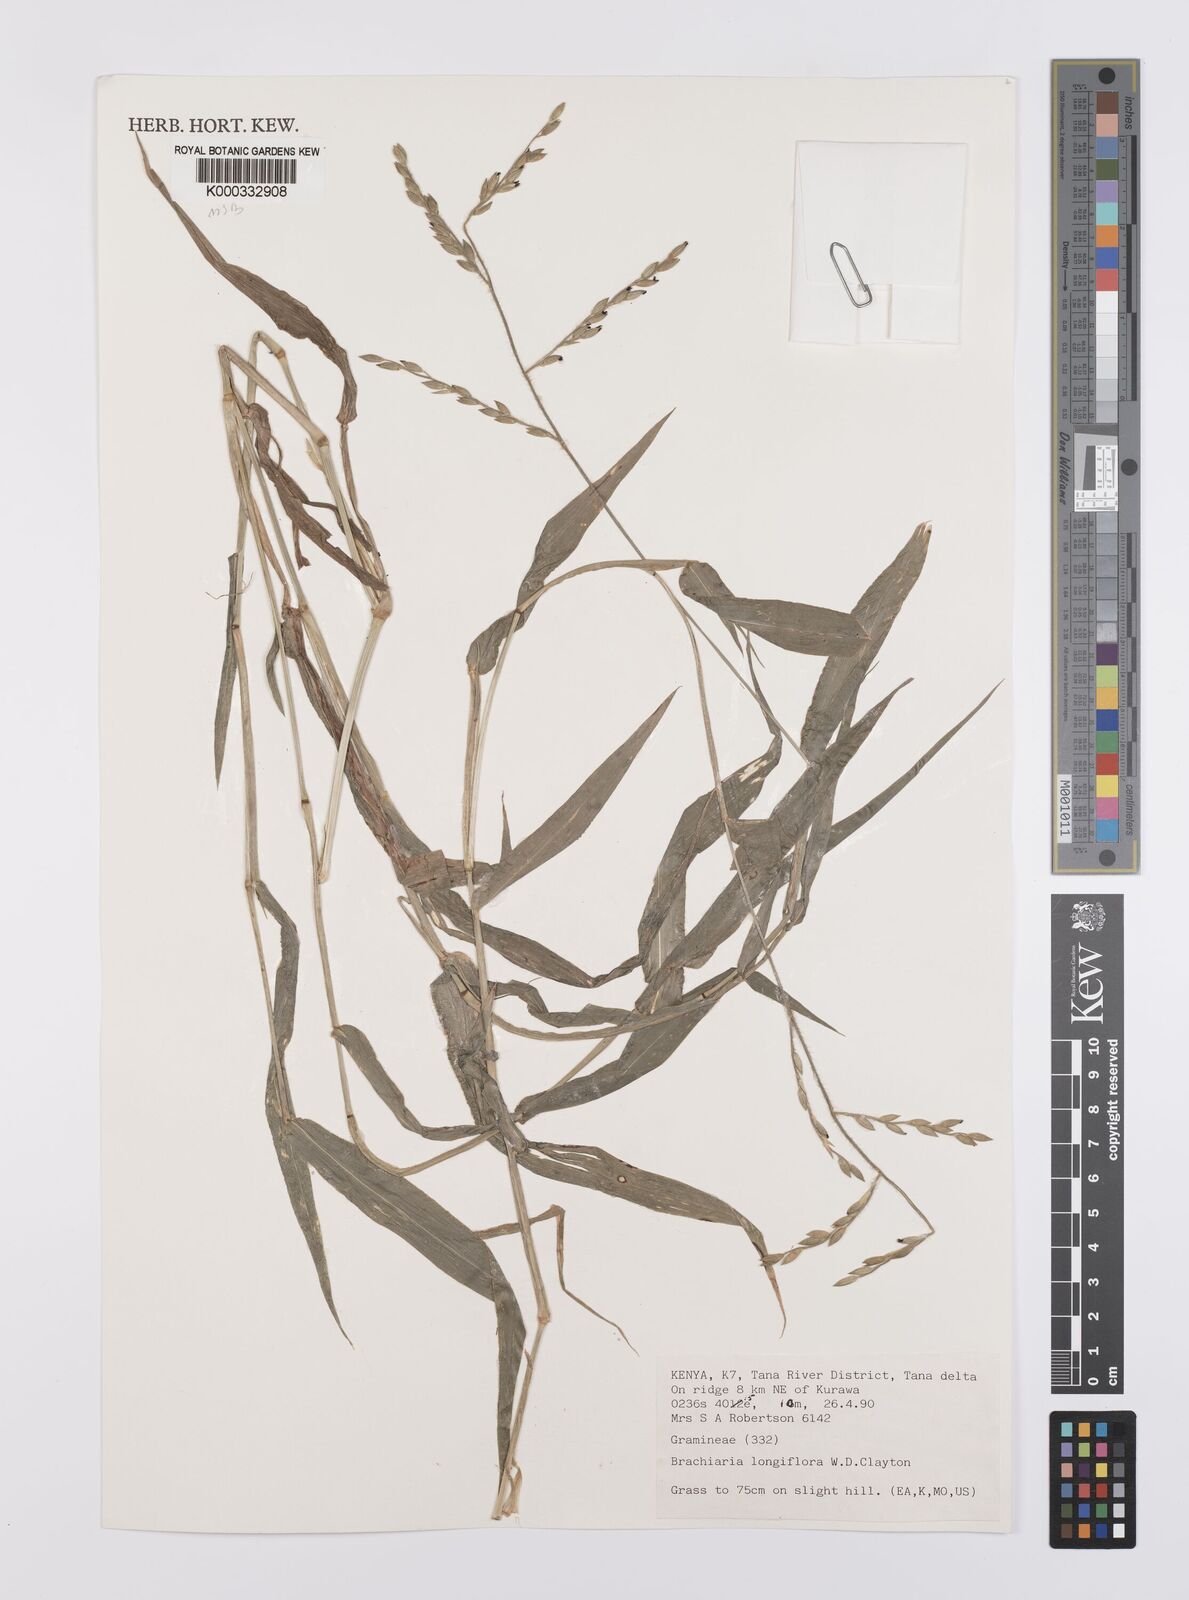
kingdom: Plantae
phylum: Tracheophyta
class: Liliopsida
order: Poales
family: Poaceae
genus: Urochloa
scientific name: Urochloa Brachiaria longiflora
